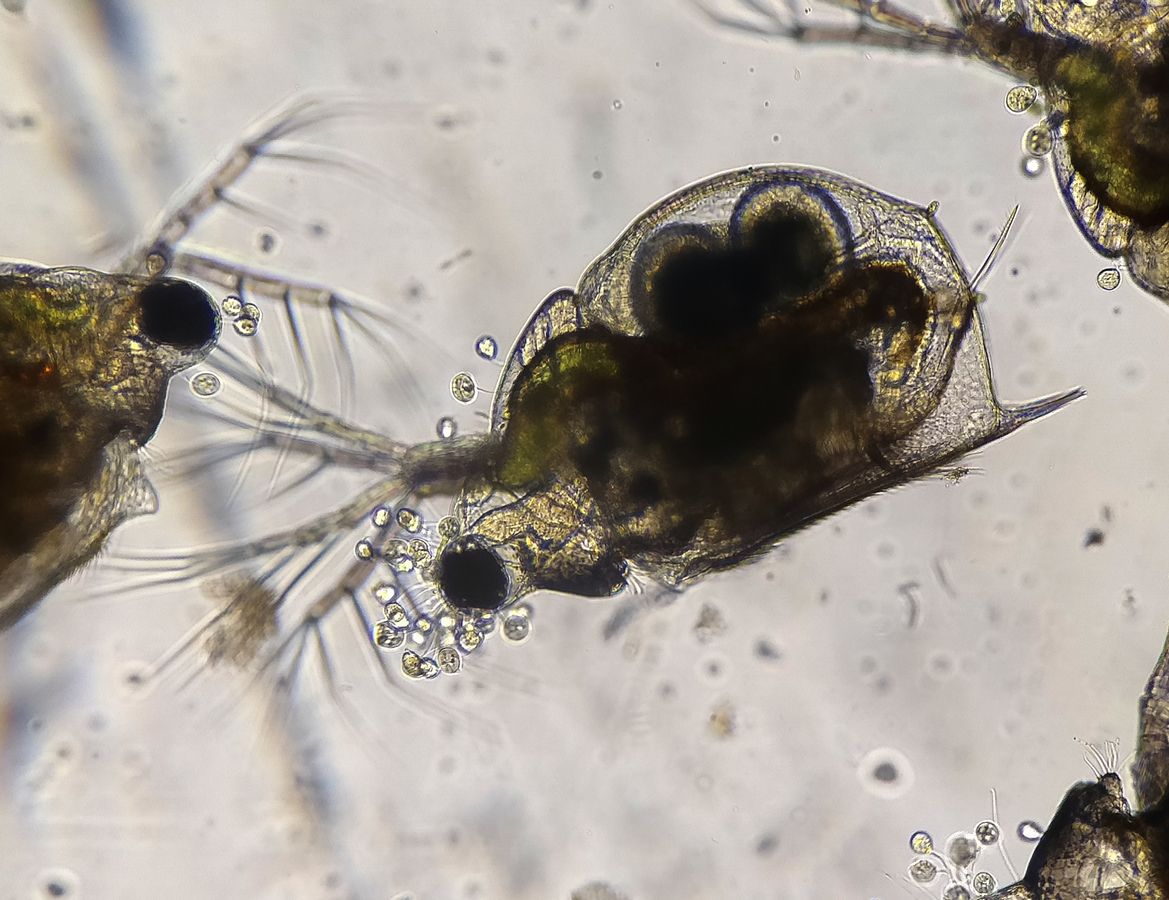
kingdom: Animalia
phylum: Arthropoda
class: Branchiopoda
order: Diplostraca
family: Daphniidae
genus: Scapholeberis
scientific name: Scapholeberis mucronata
